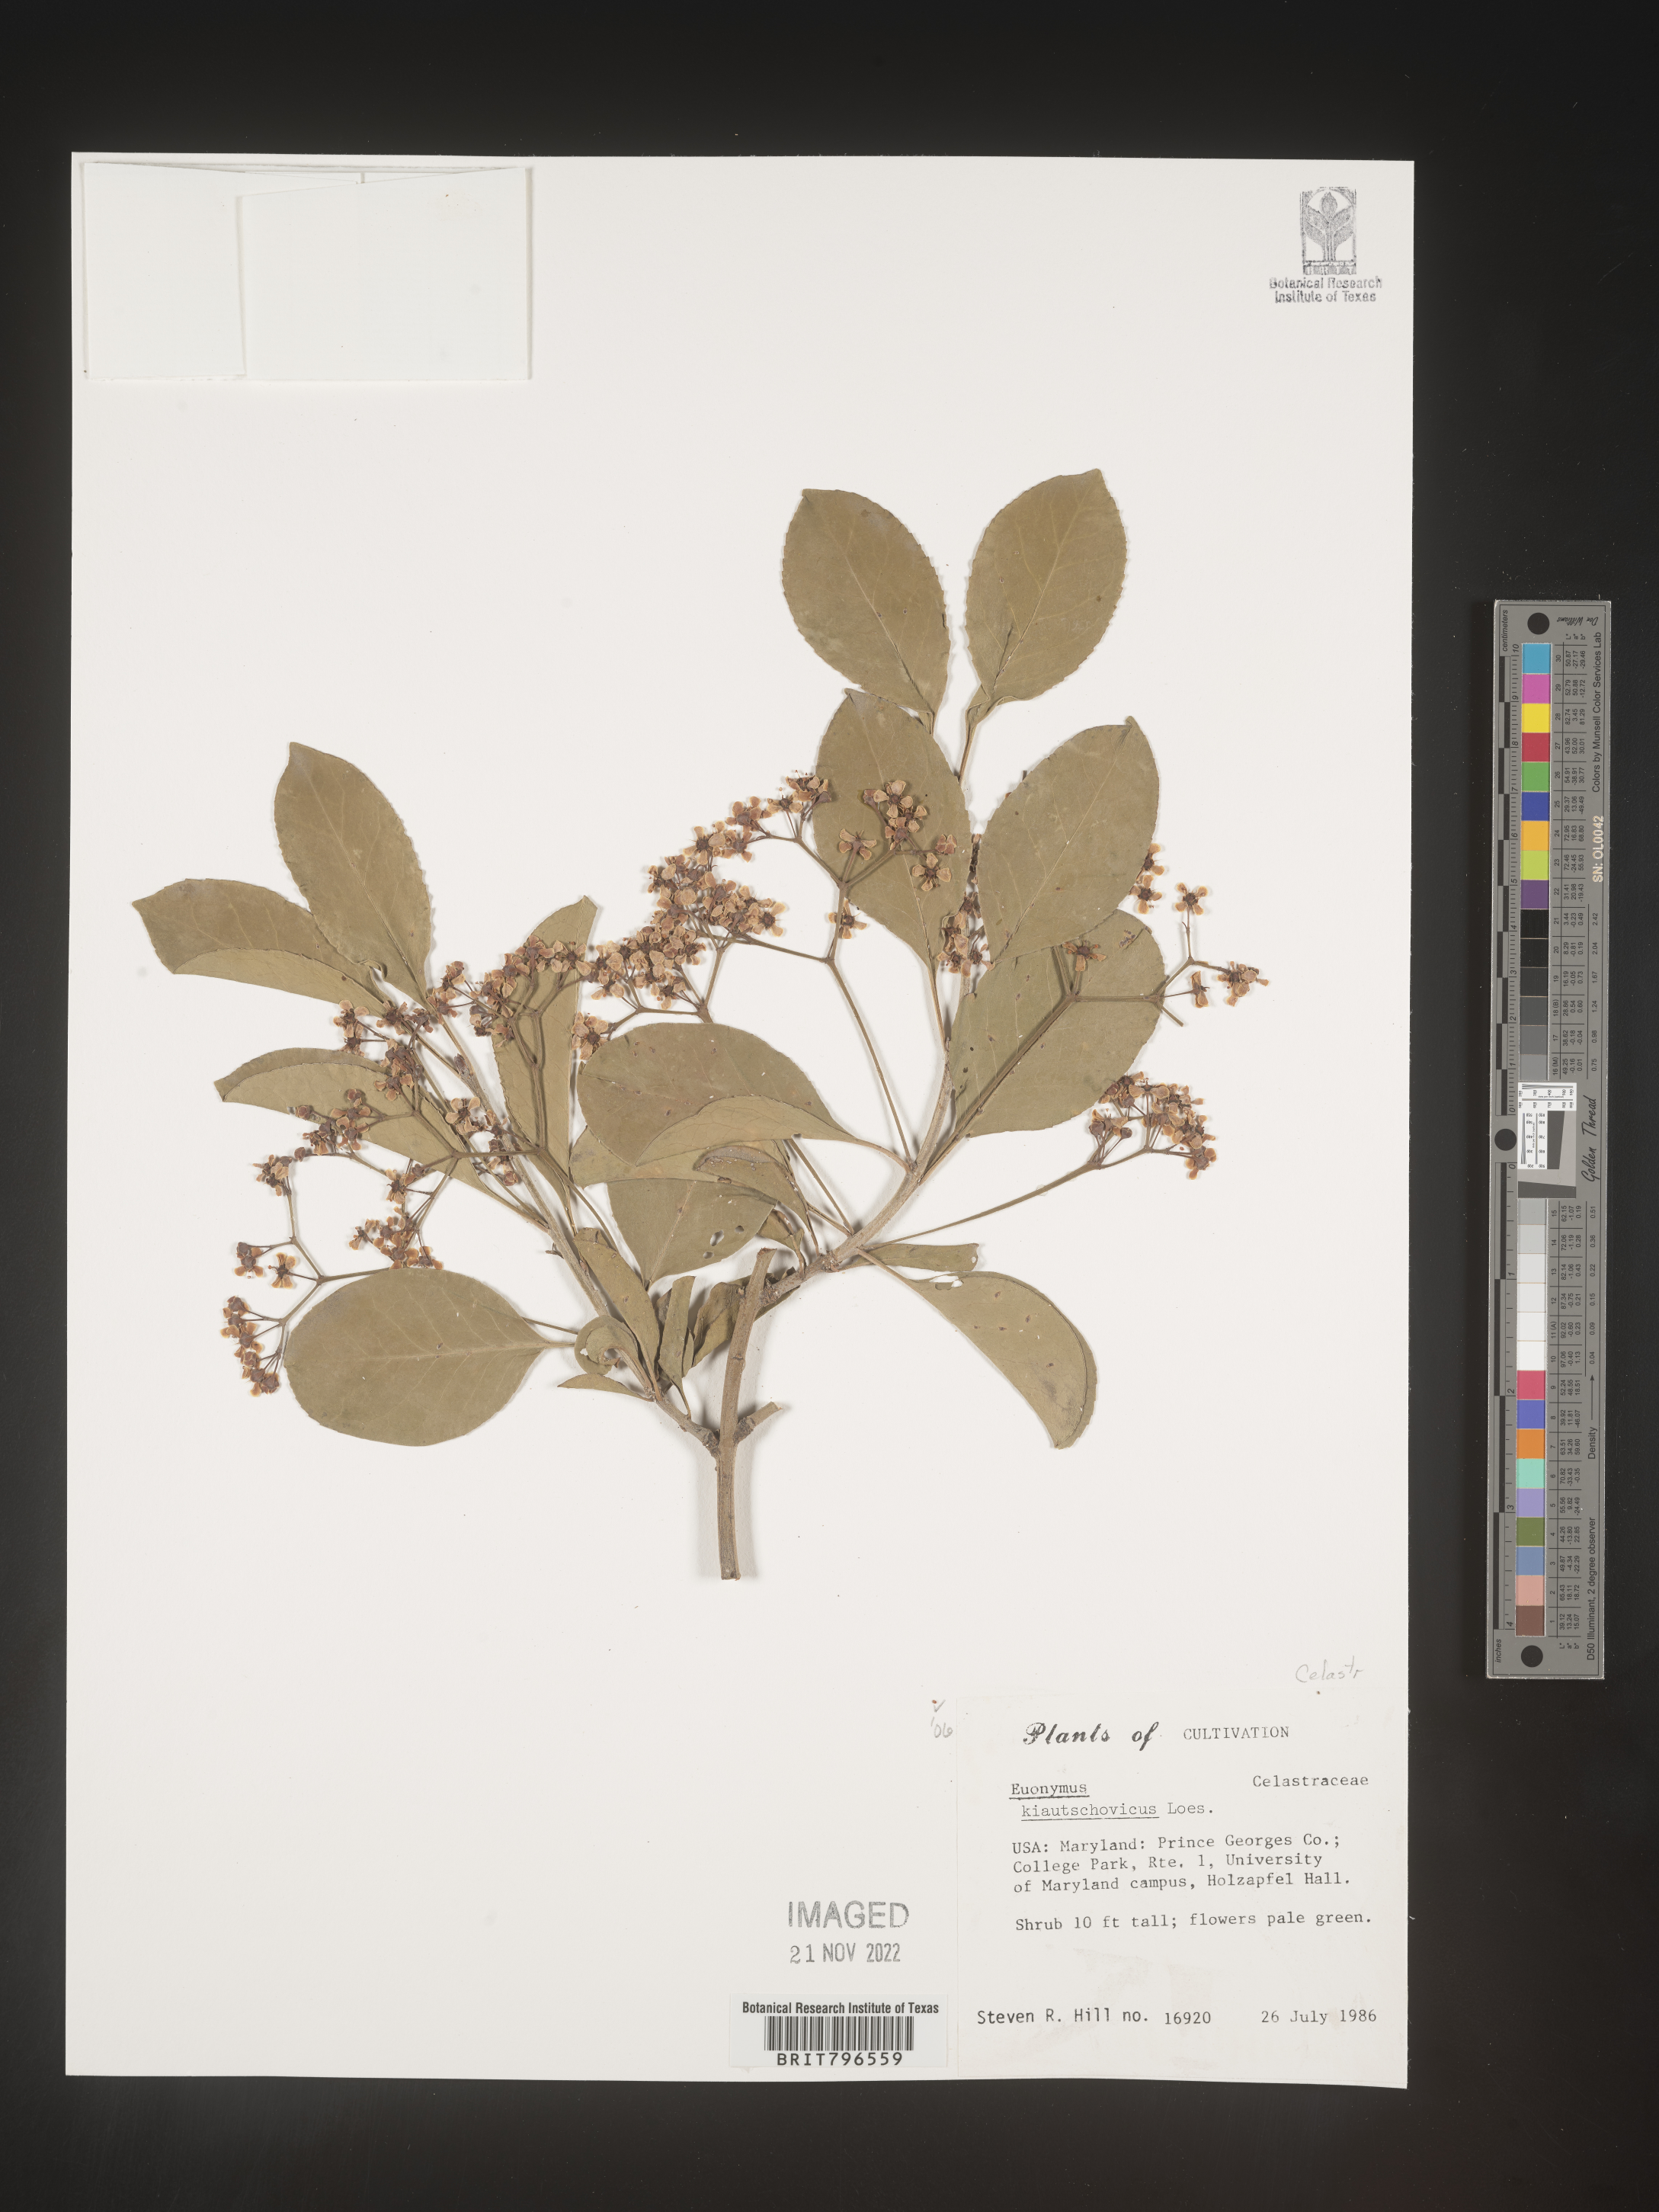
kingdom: Plantae
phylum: Tracheophyta
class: Magnoliopsida
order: Celastrales
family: Celastraceae
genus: Euonymus
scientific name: Euonymus
